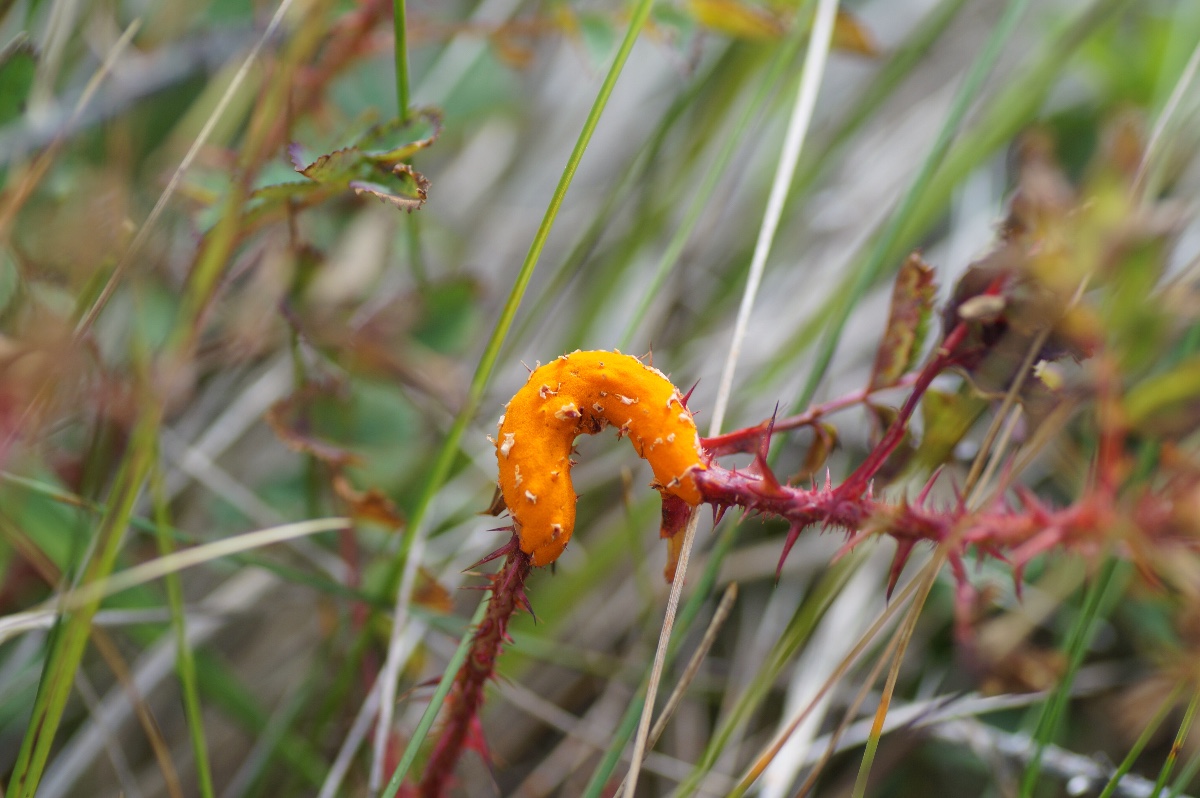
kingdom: Fungi
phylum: Basidiomycota
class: Pucciniomycetes
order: Pucciniales
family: Phragmidiaceae
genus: Phragmidium
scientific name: Phragmidium rosae-pimpinellifoliae
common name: Burnet rose rust
